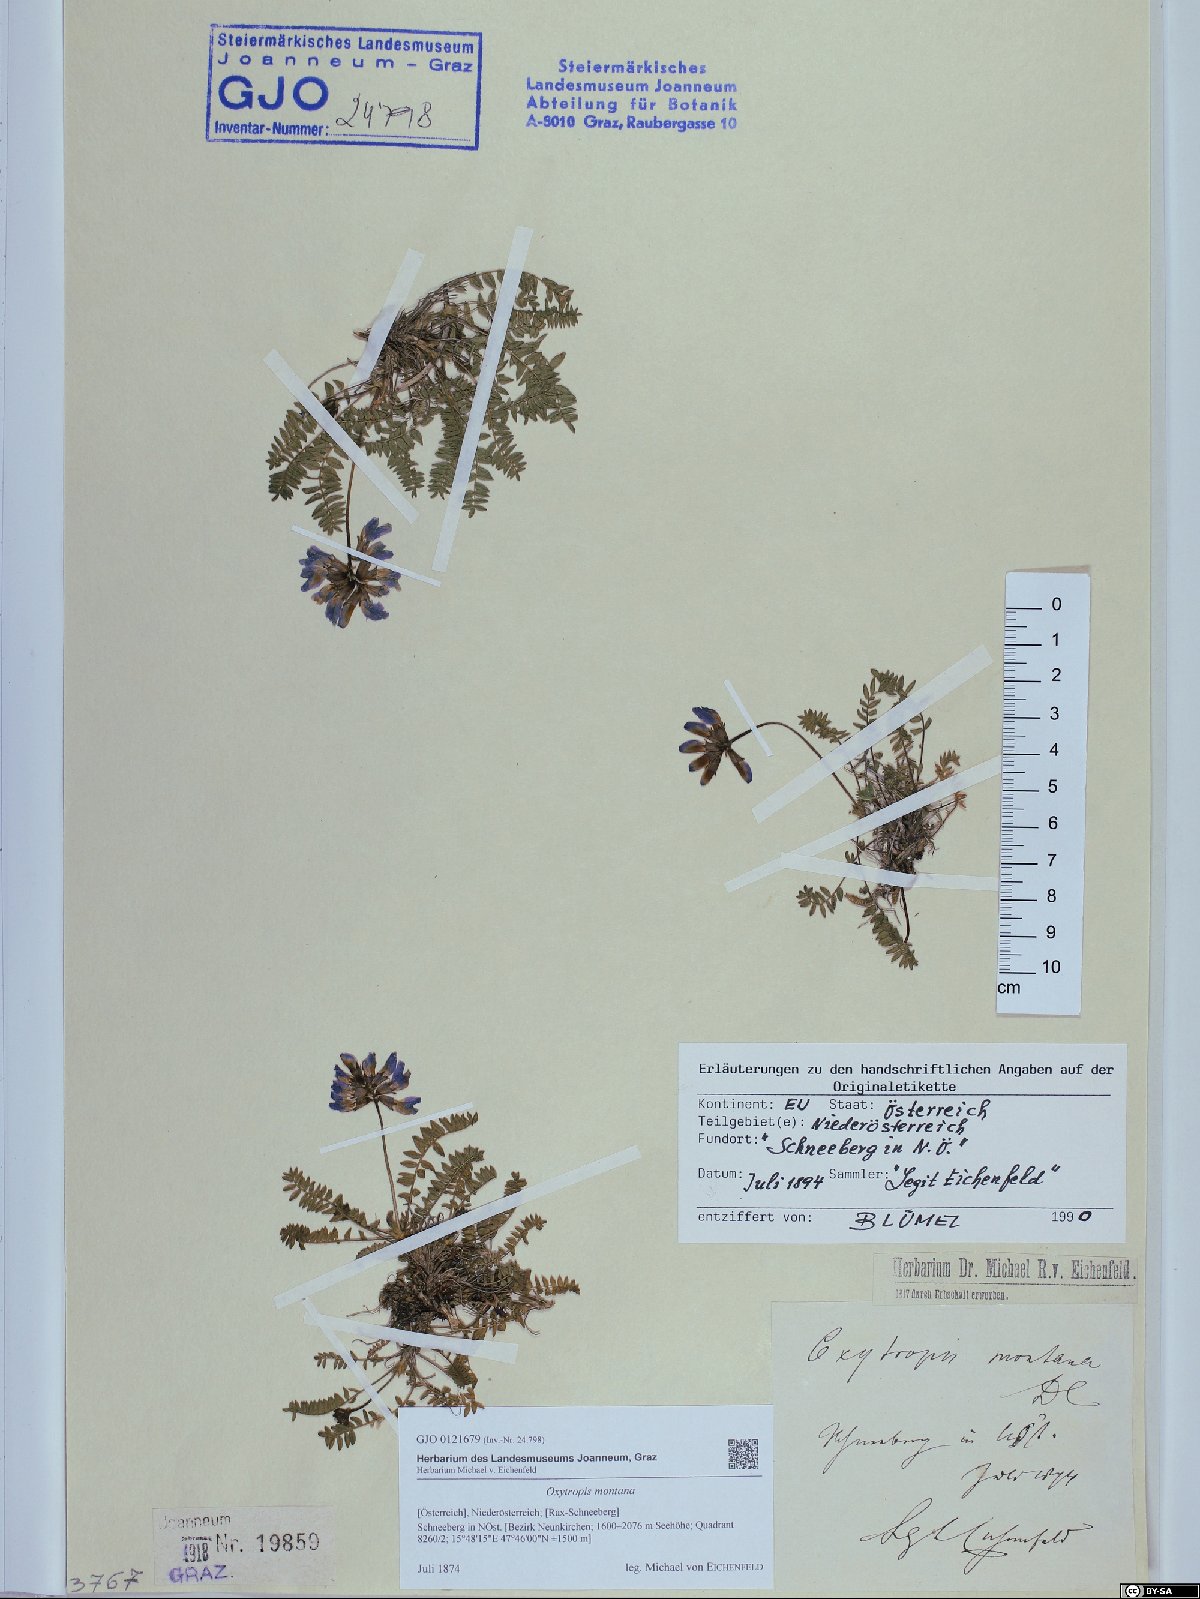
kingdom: Plantae
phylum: Tracheophyta
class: Magnoliopsida
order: Fabales
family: Fabaceae
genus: Oxytropis
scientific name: Oxytropis montana
